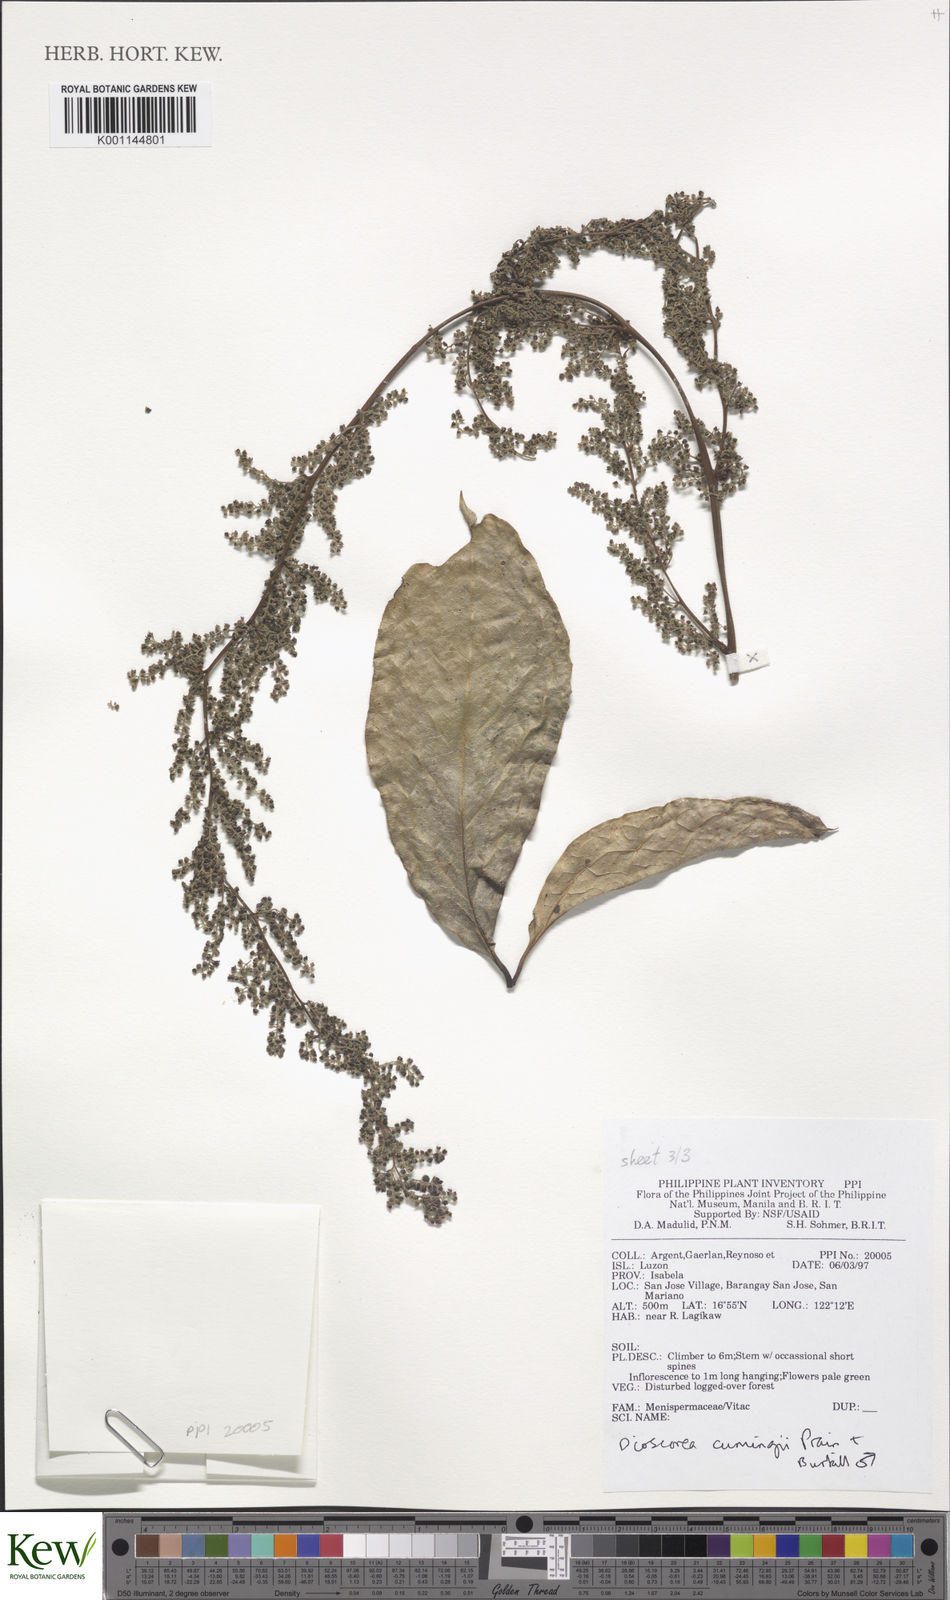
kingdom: Plantae
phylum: Tracheophyta
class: Liliopsida
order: Dioscoreales
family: Dioscoreaceae
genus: Dioscorea
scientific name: Dioscorea cumingii
